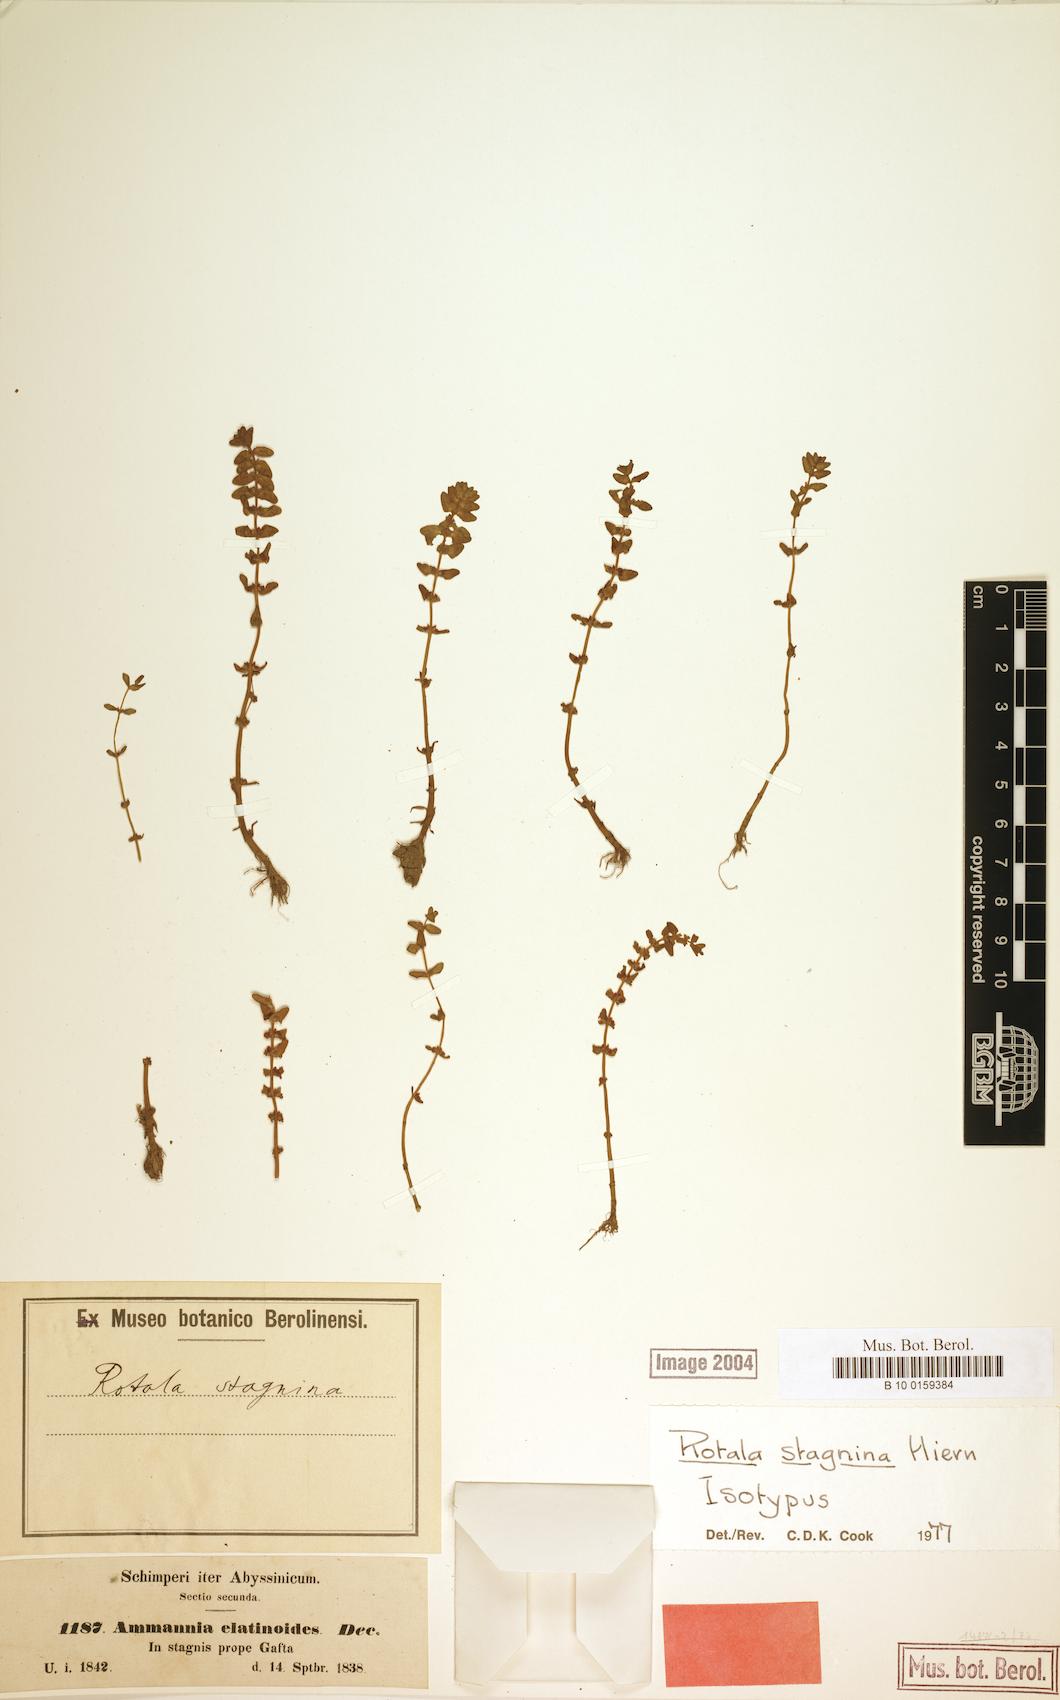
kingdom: Plantae
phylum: Tracheophyta
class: Magnoliopsida
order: Myrtales
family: Lythraceae
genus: Rotala
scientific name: Rotala stagnina
